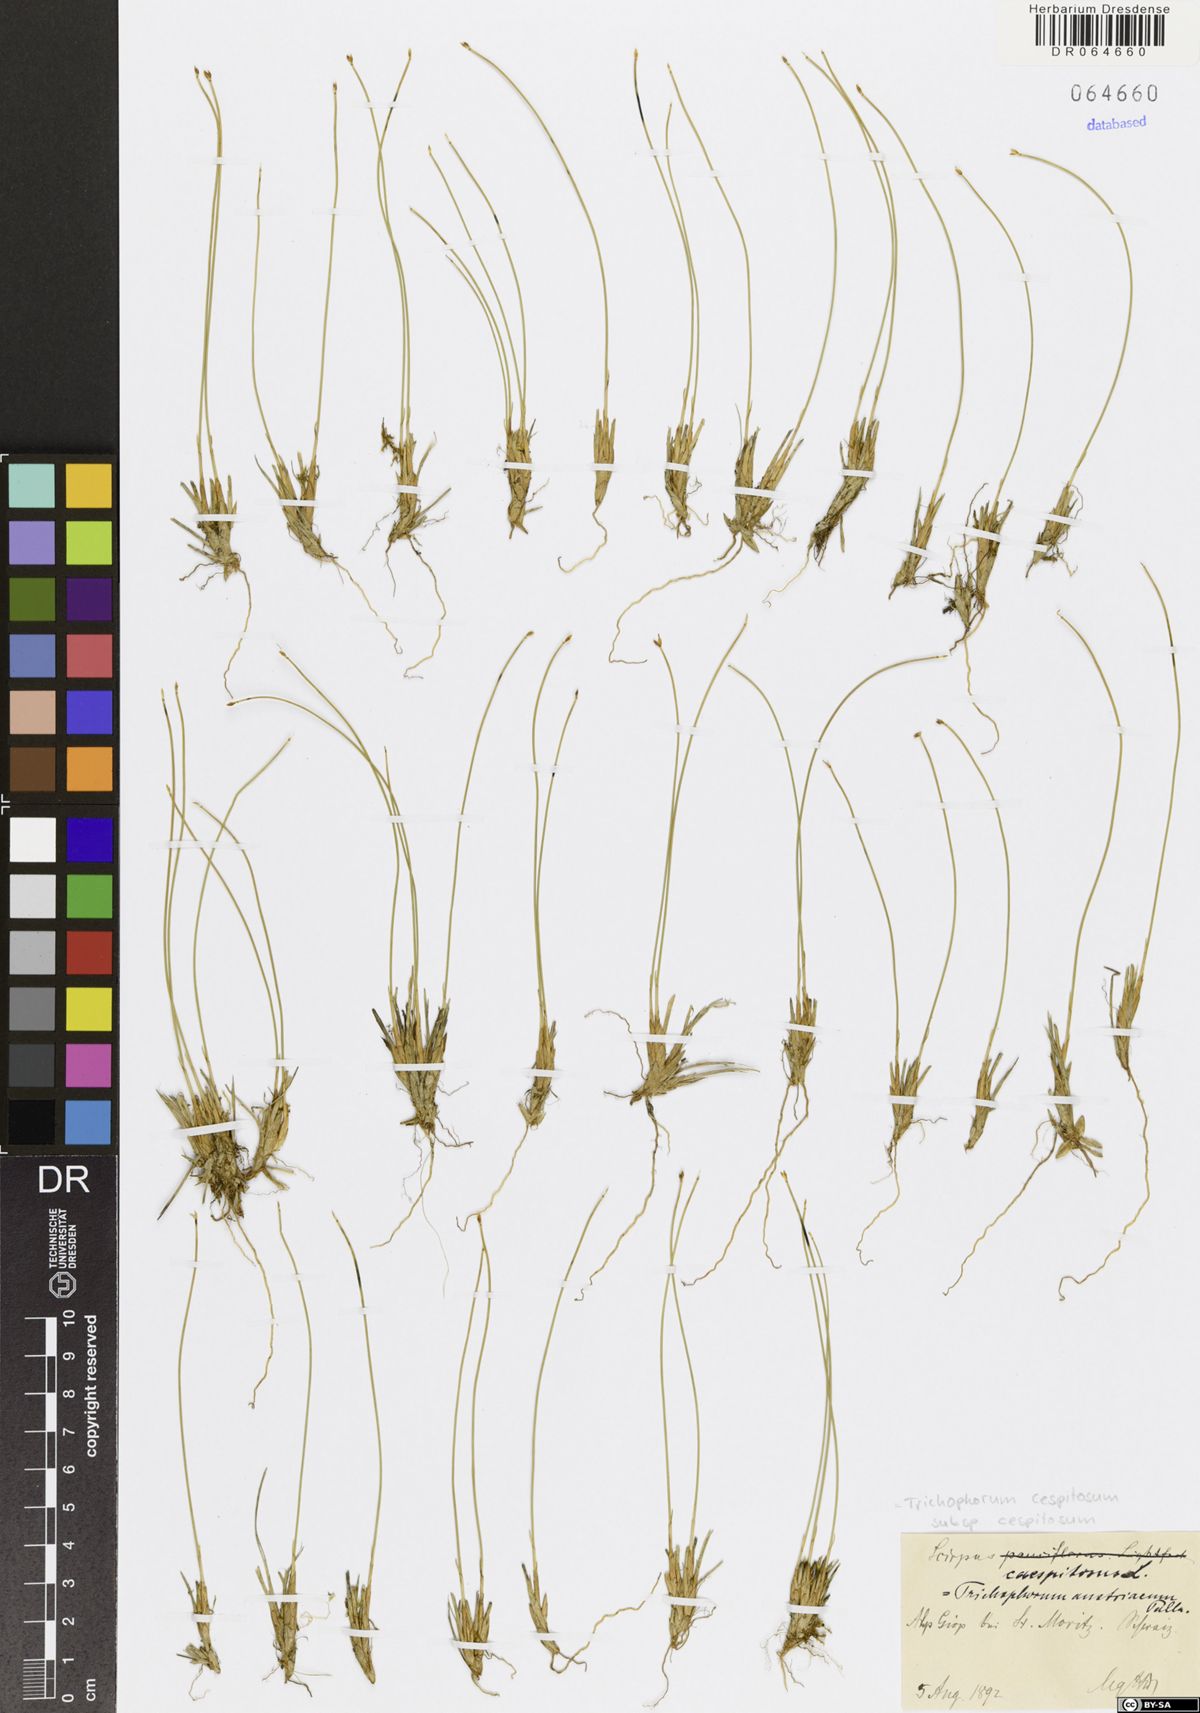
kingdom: Plantae
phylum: Tracheophyta
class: Liliopsida
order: Poales
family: Cyperaceae
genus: Trichophorum
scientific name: Trichophorum cespitosum
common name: Cespitose bulrush
